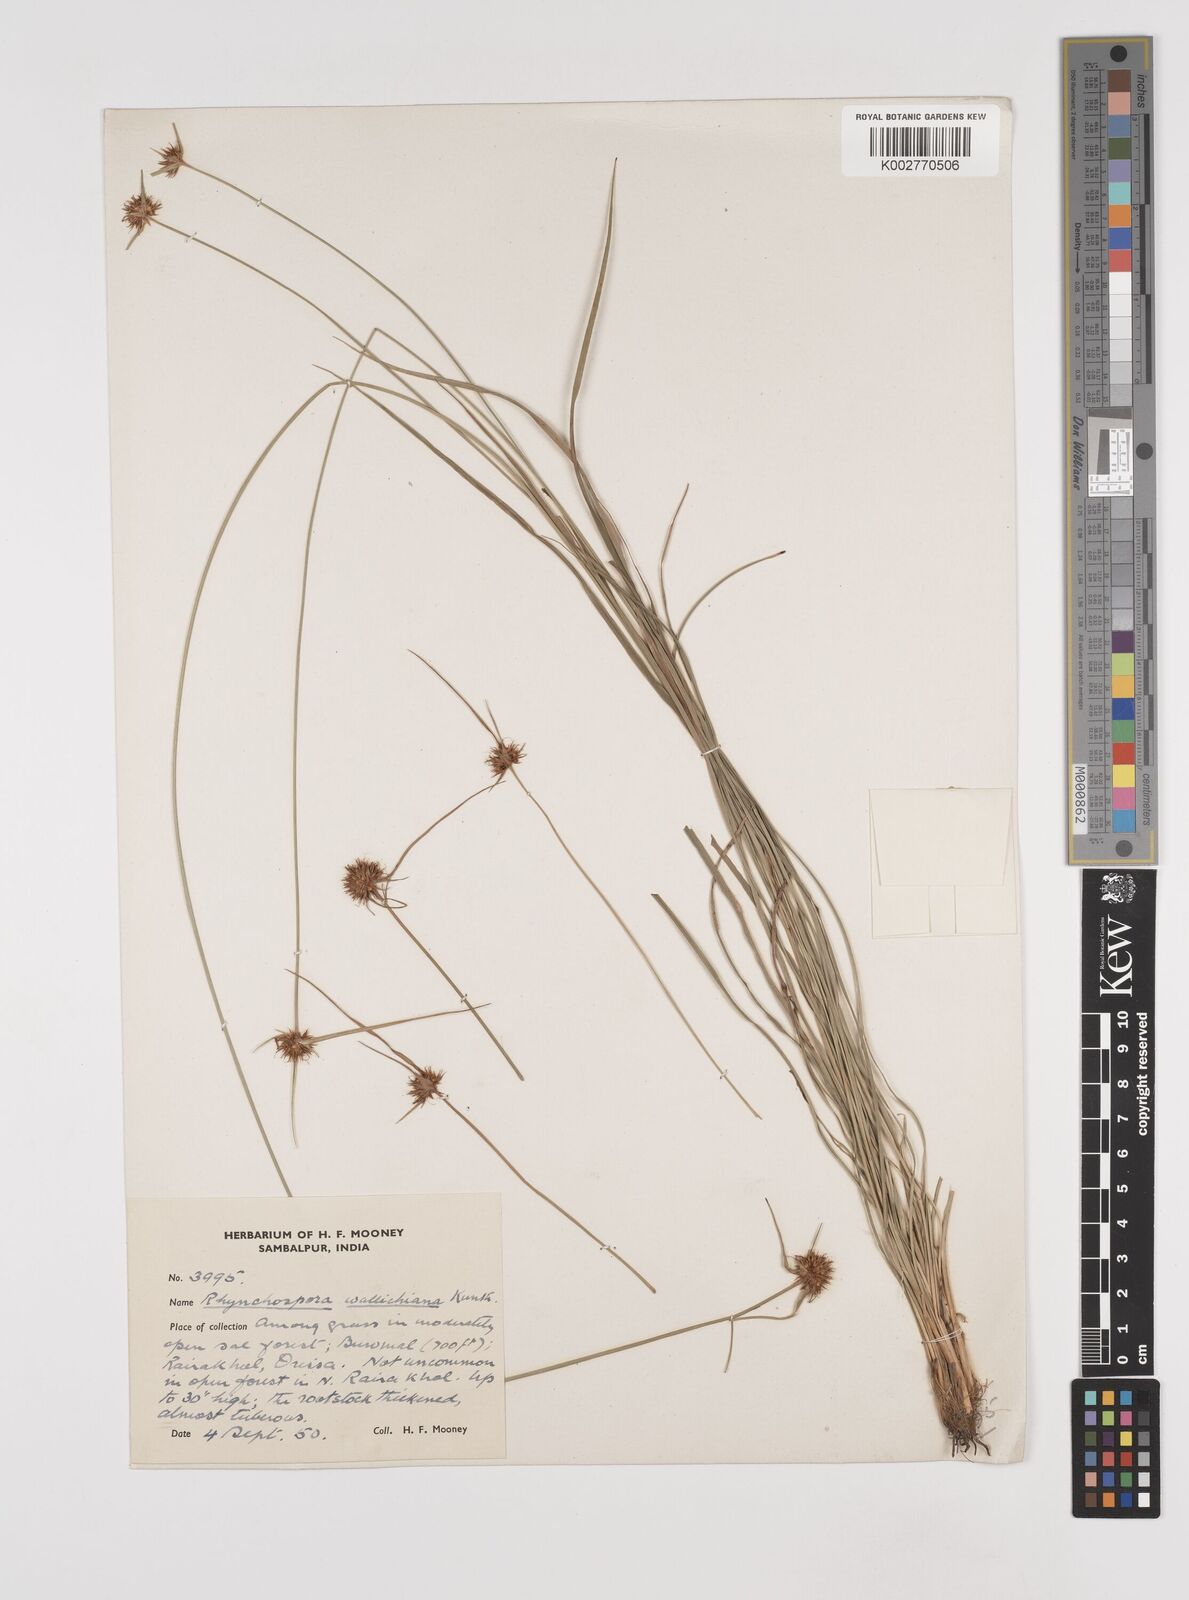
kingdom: Plantae
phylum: Tracheophyta
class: Liliopsida
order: Poales
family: Cyperaceae
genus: Rhynchospora
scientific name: Rhynchospora rubra
